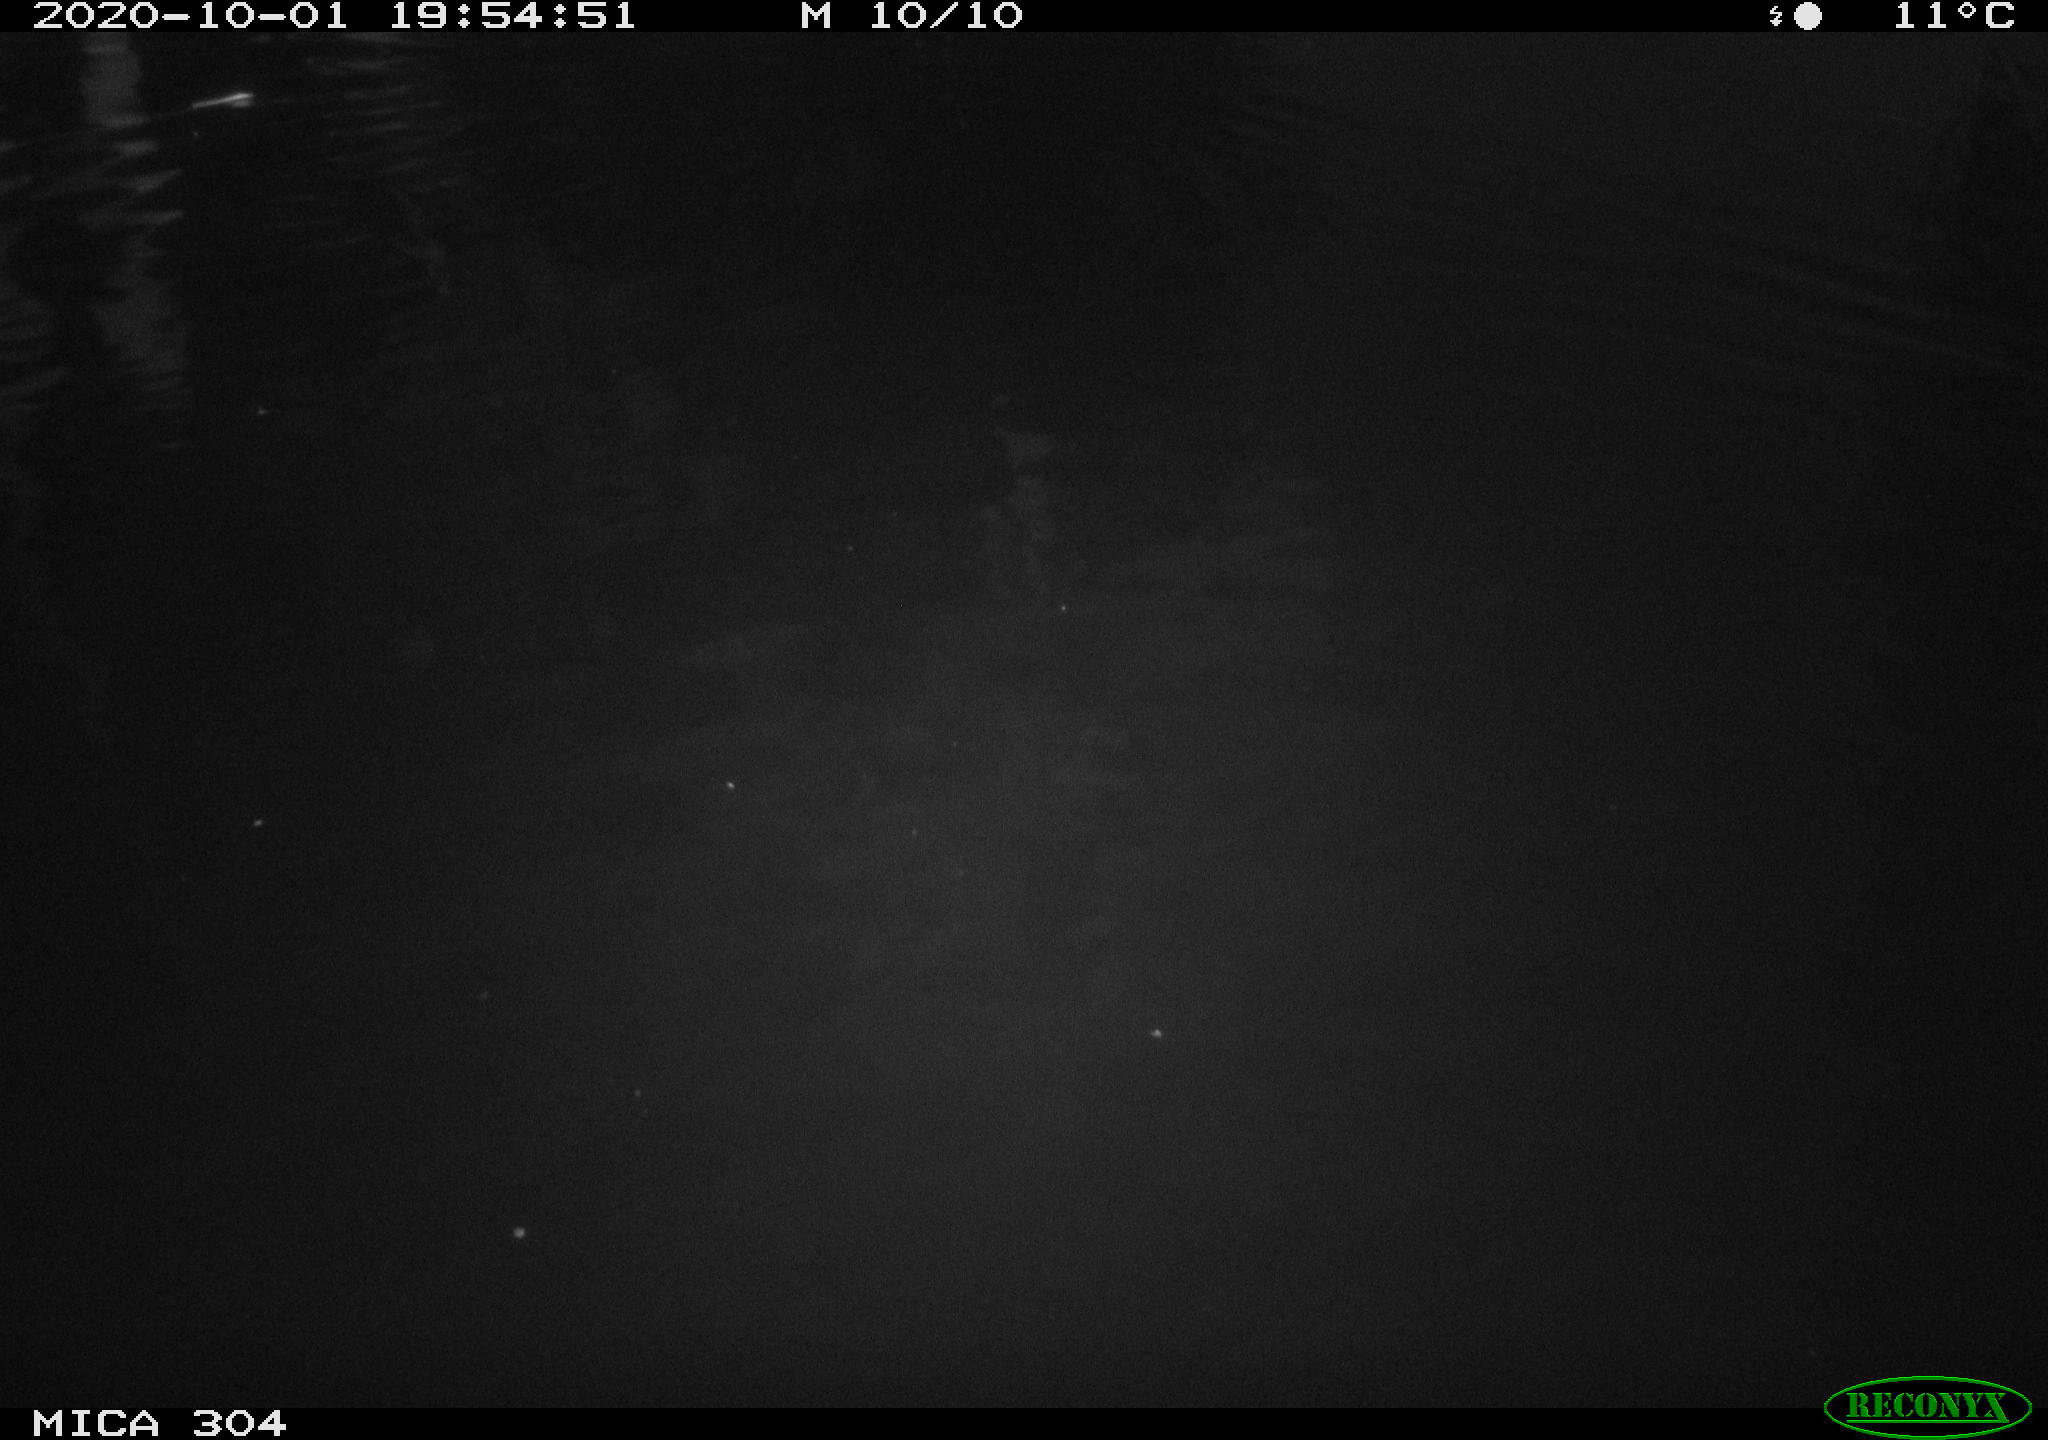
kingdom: Animalia
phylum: Chordata
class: Mammalia
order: Rodentia
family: Muridae
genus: Rattus
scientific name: Rattus norvegicus
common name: Brown rat
